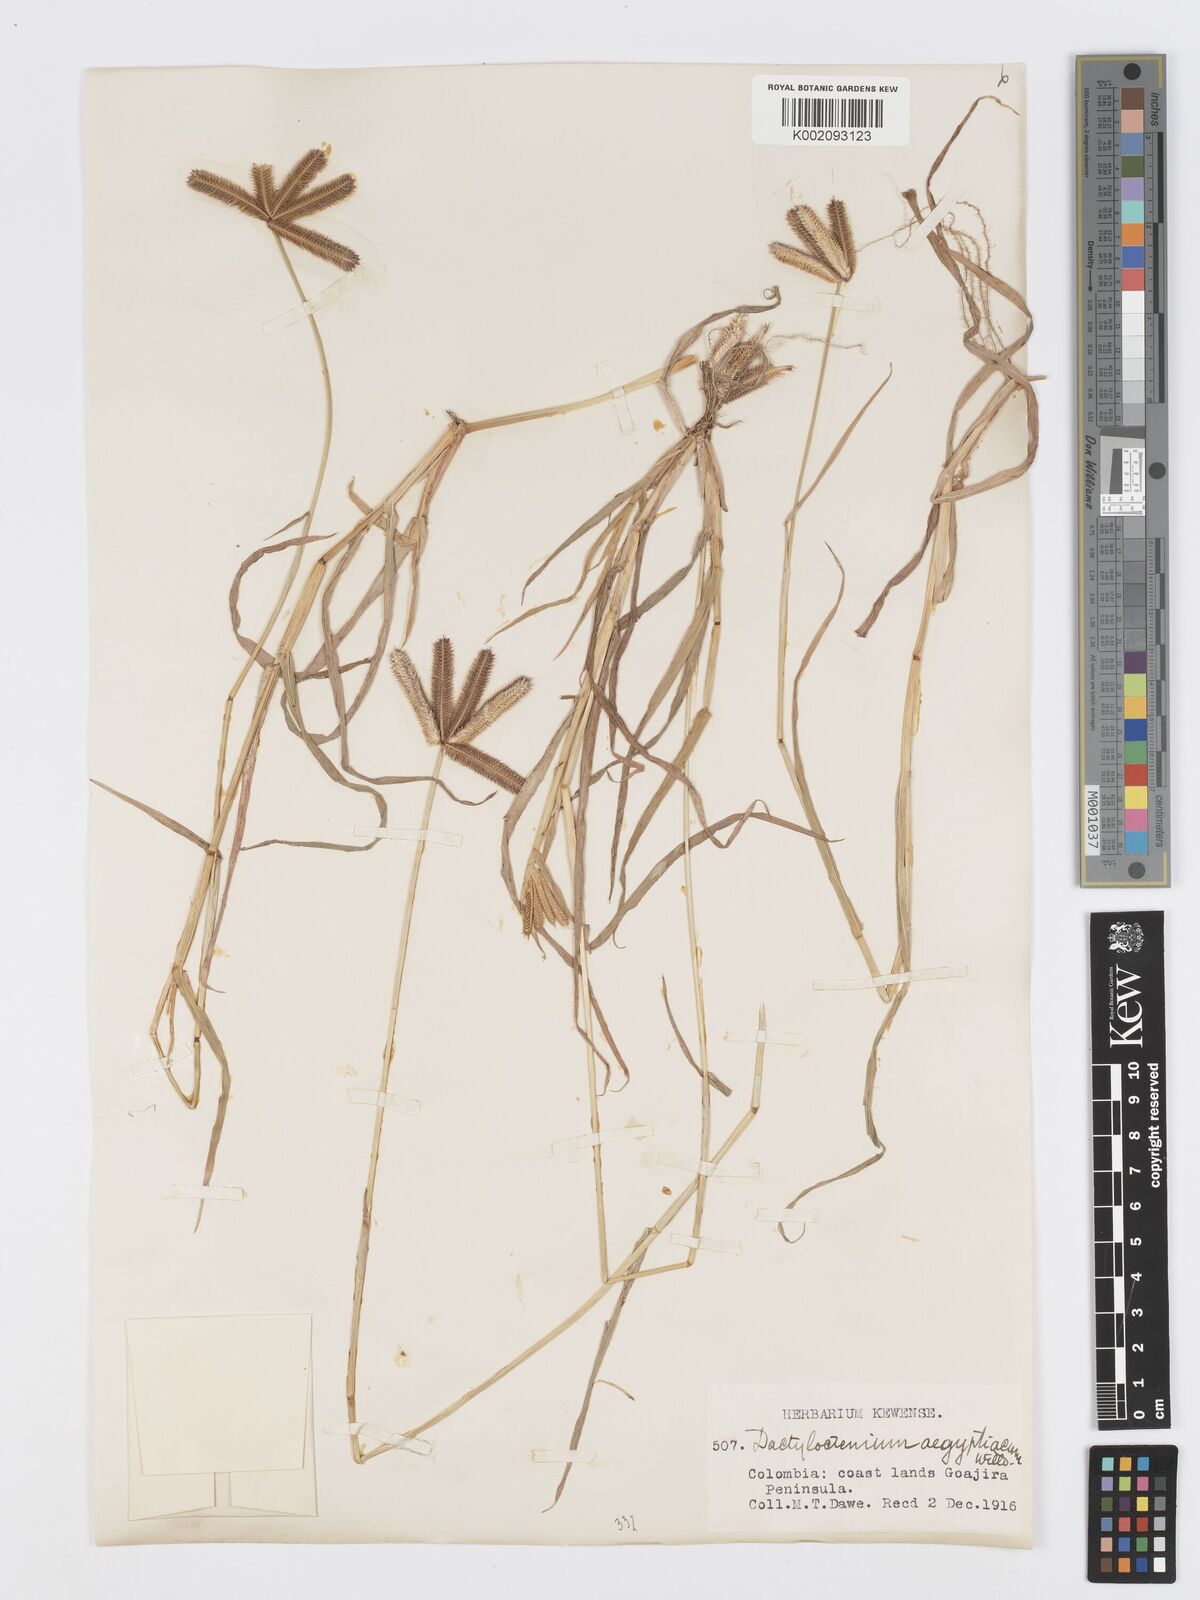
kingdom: Plantae
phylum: Tracheophyta
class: Liliopsida
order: Poales
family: Poaceae
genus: Dactyloctenium
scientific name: Dactyloctenium aegyptium
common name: Egyptian grass
